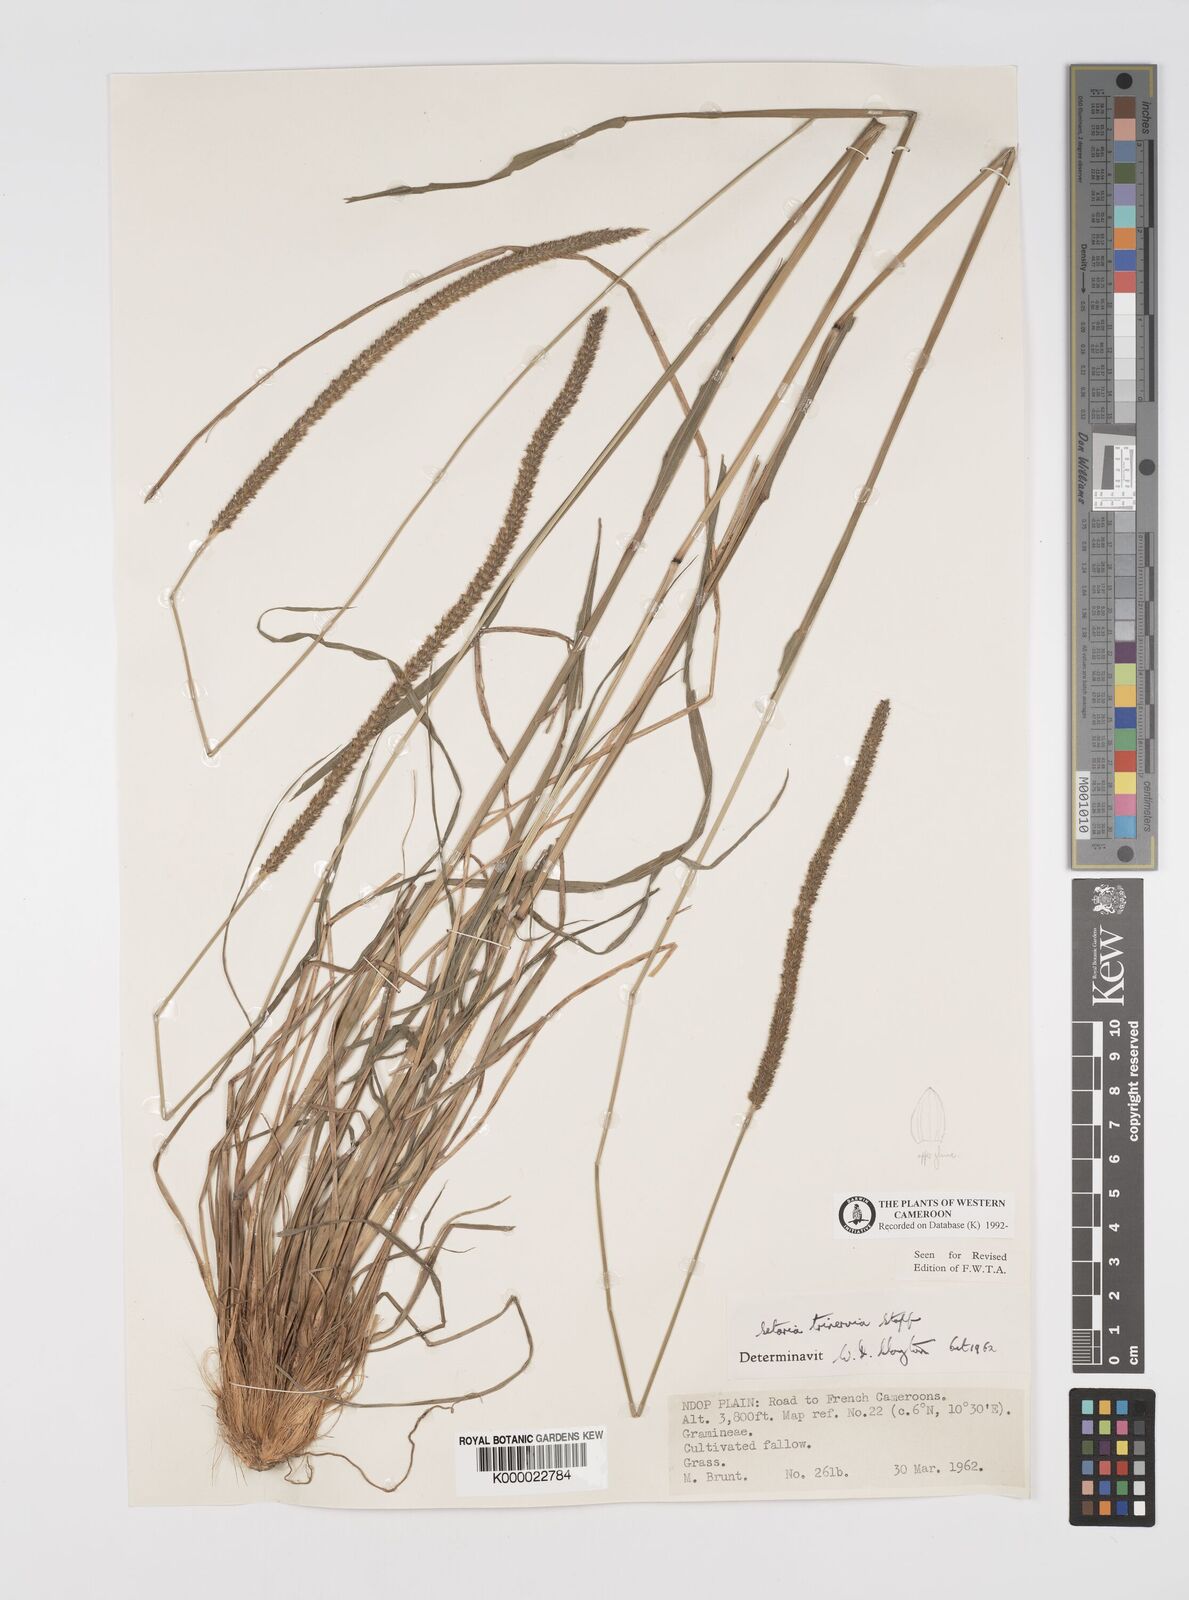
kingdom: Plantae
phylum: Tracheophyta
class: Liliopsida
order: Poales
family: Poaceae
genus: Setaria
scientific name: Setaria sphacelata
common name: African bristlegrass
